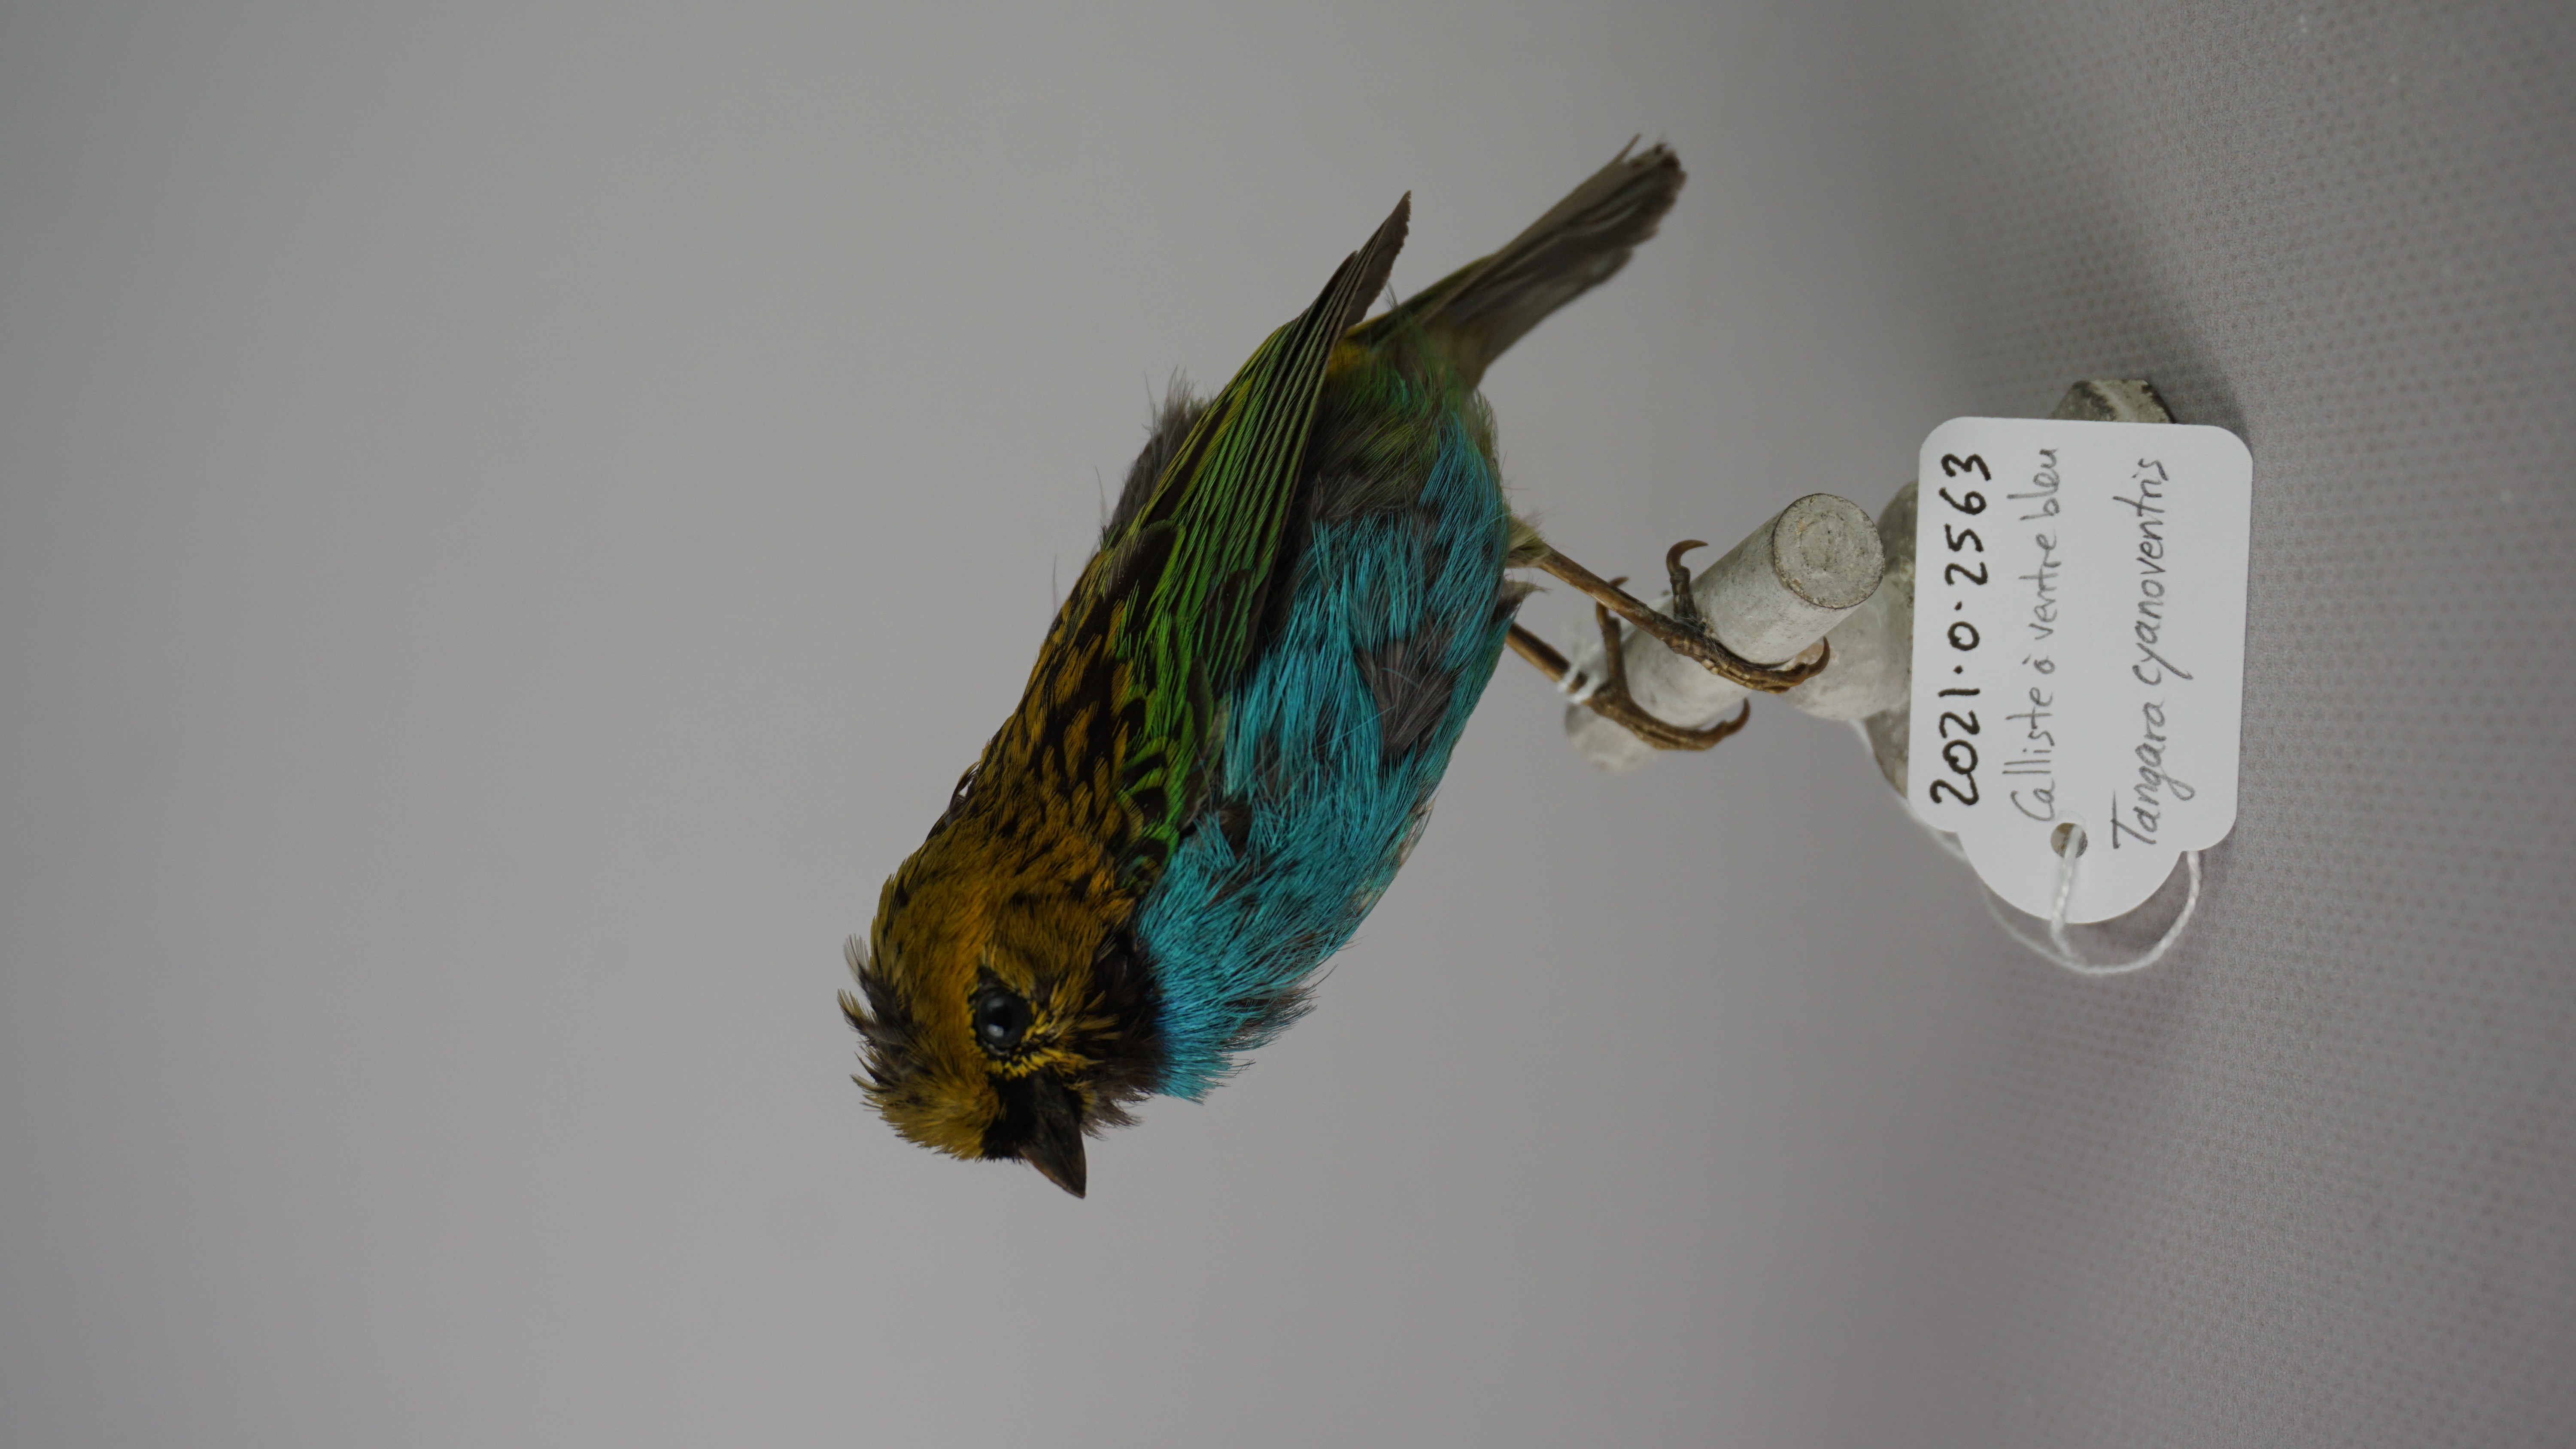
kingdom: Animalia
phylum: Chordata
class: Aves
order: Passeriformes
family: Thraupidae
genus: Tangara
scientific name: Tangara cyanoventris
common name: Gilt-edged tanager
